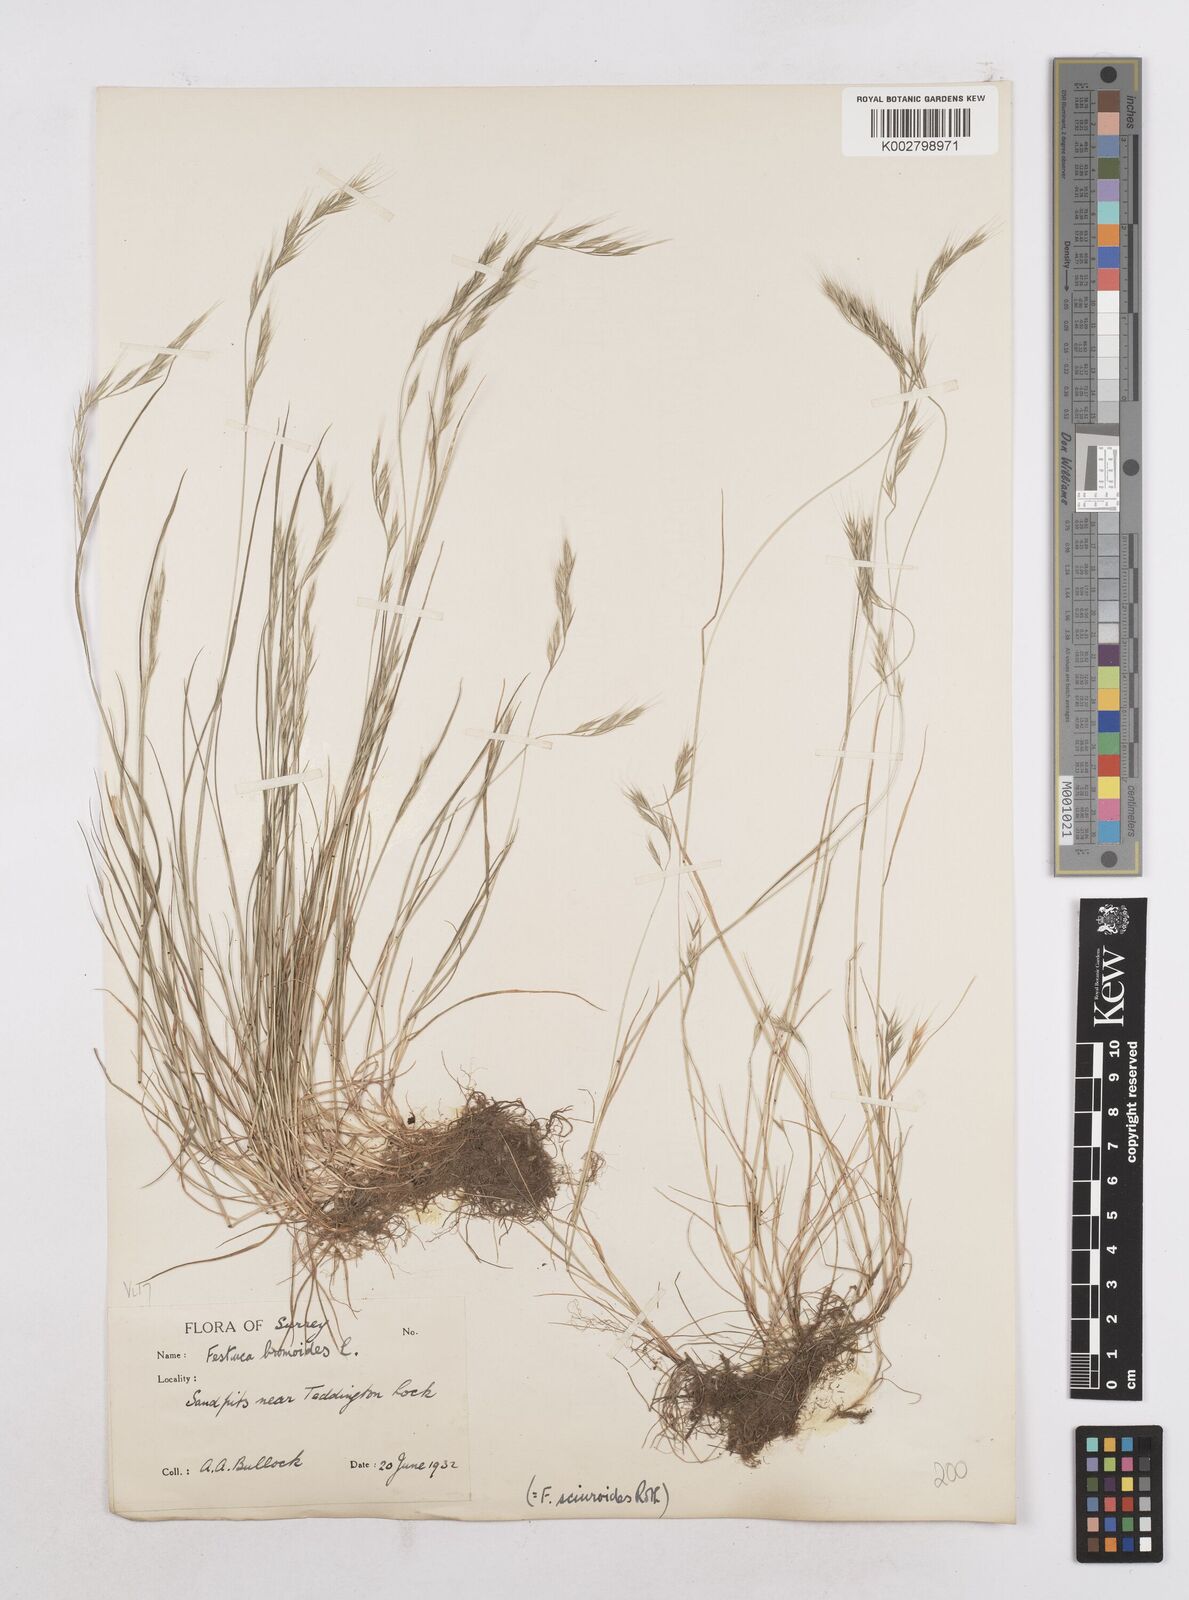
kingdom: Plantae
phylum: Tracheophyta
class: Liliopsida
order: Poales
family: Poaceae
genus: Festuca
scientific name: Festuca bromoides
